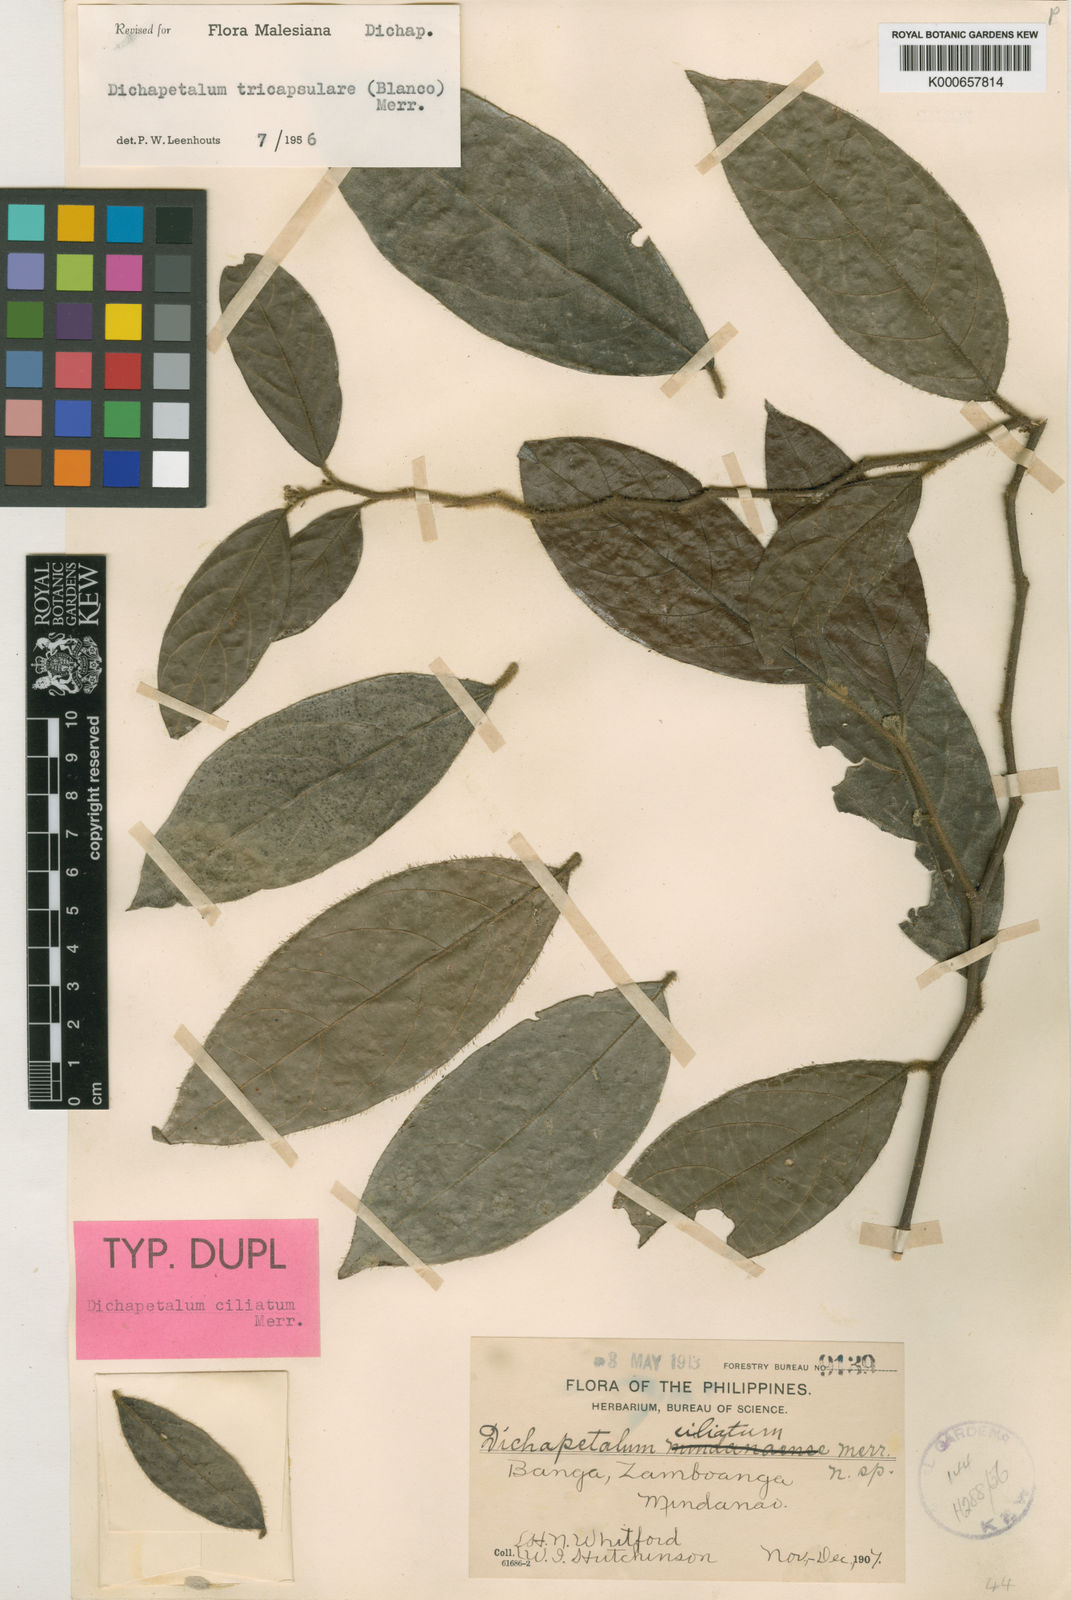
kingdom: Plantae
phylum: Tracheophyta
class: Magnoliopsida
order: Malpighiales
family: Dichapetalaceae
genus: Dichapetalum
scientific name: Dichapetalum tricapsulare
